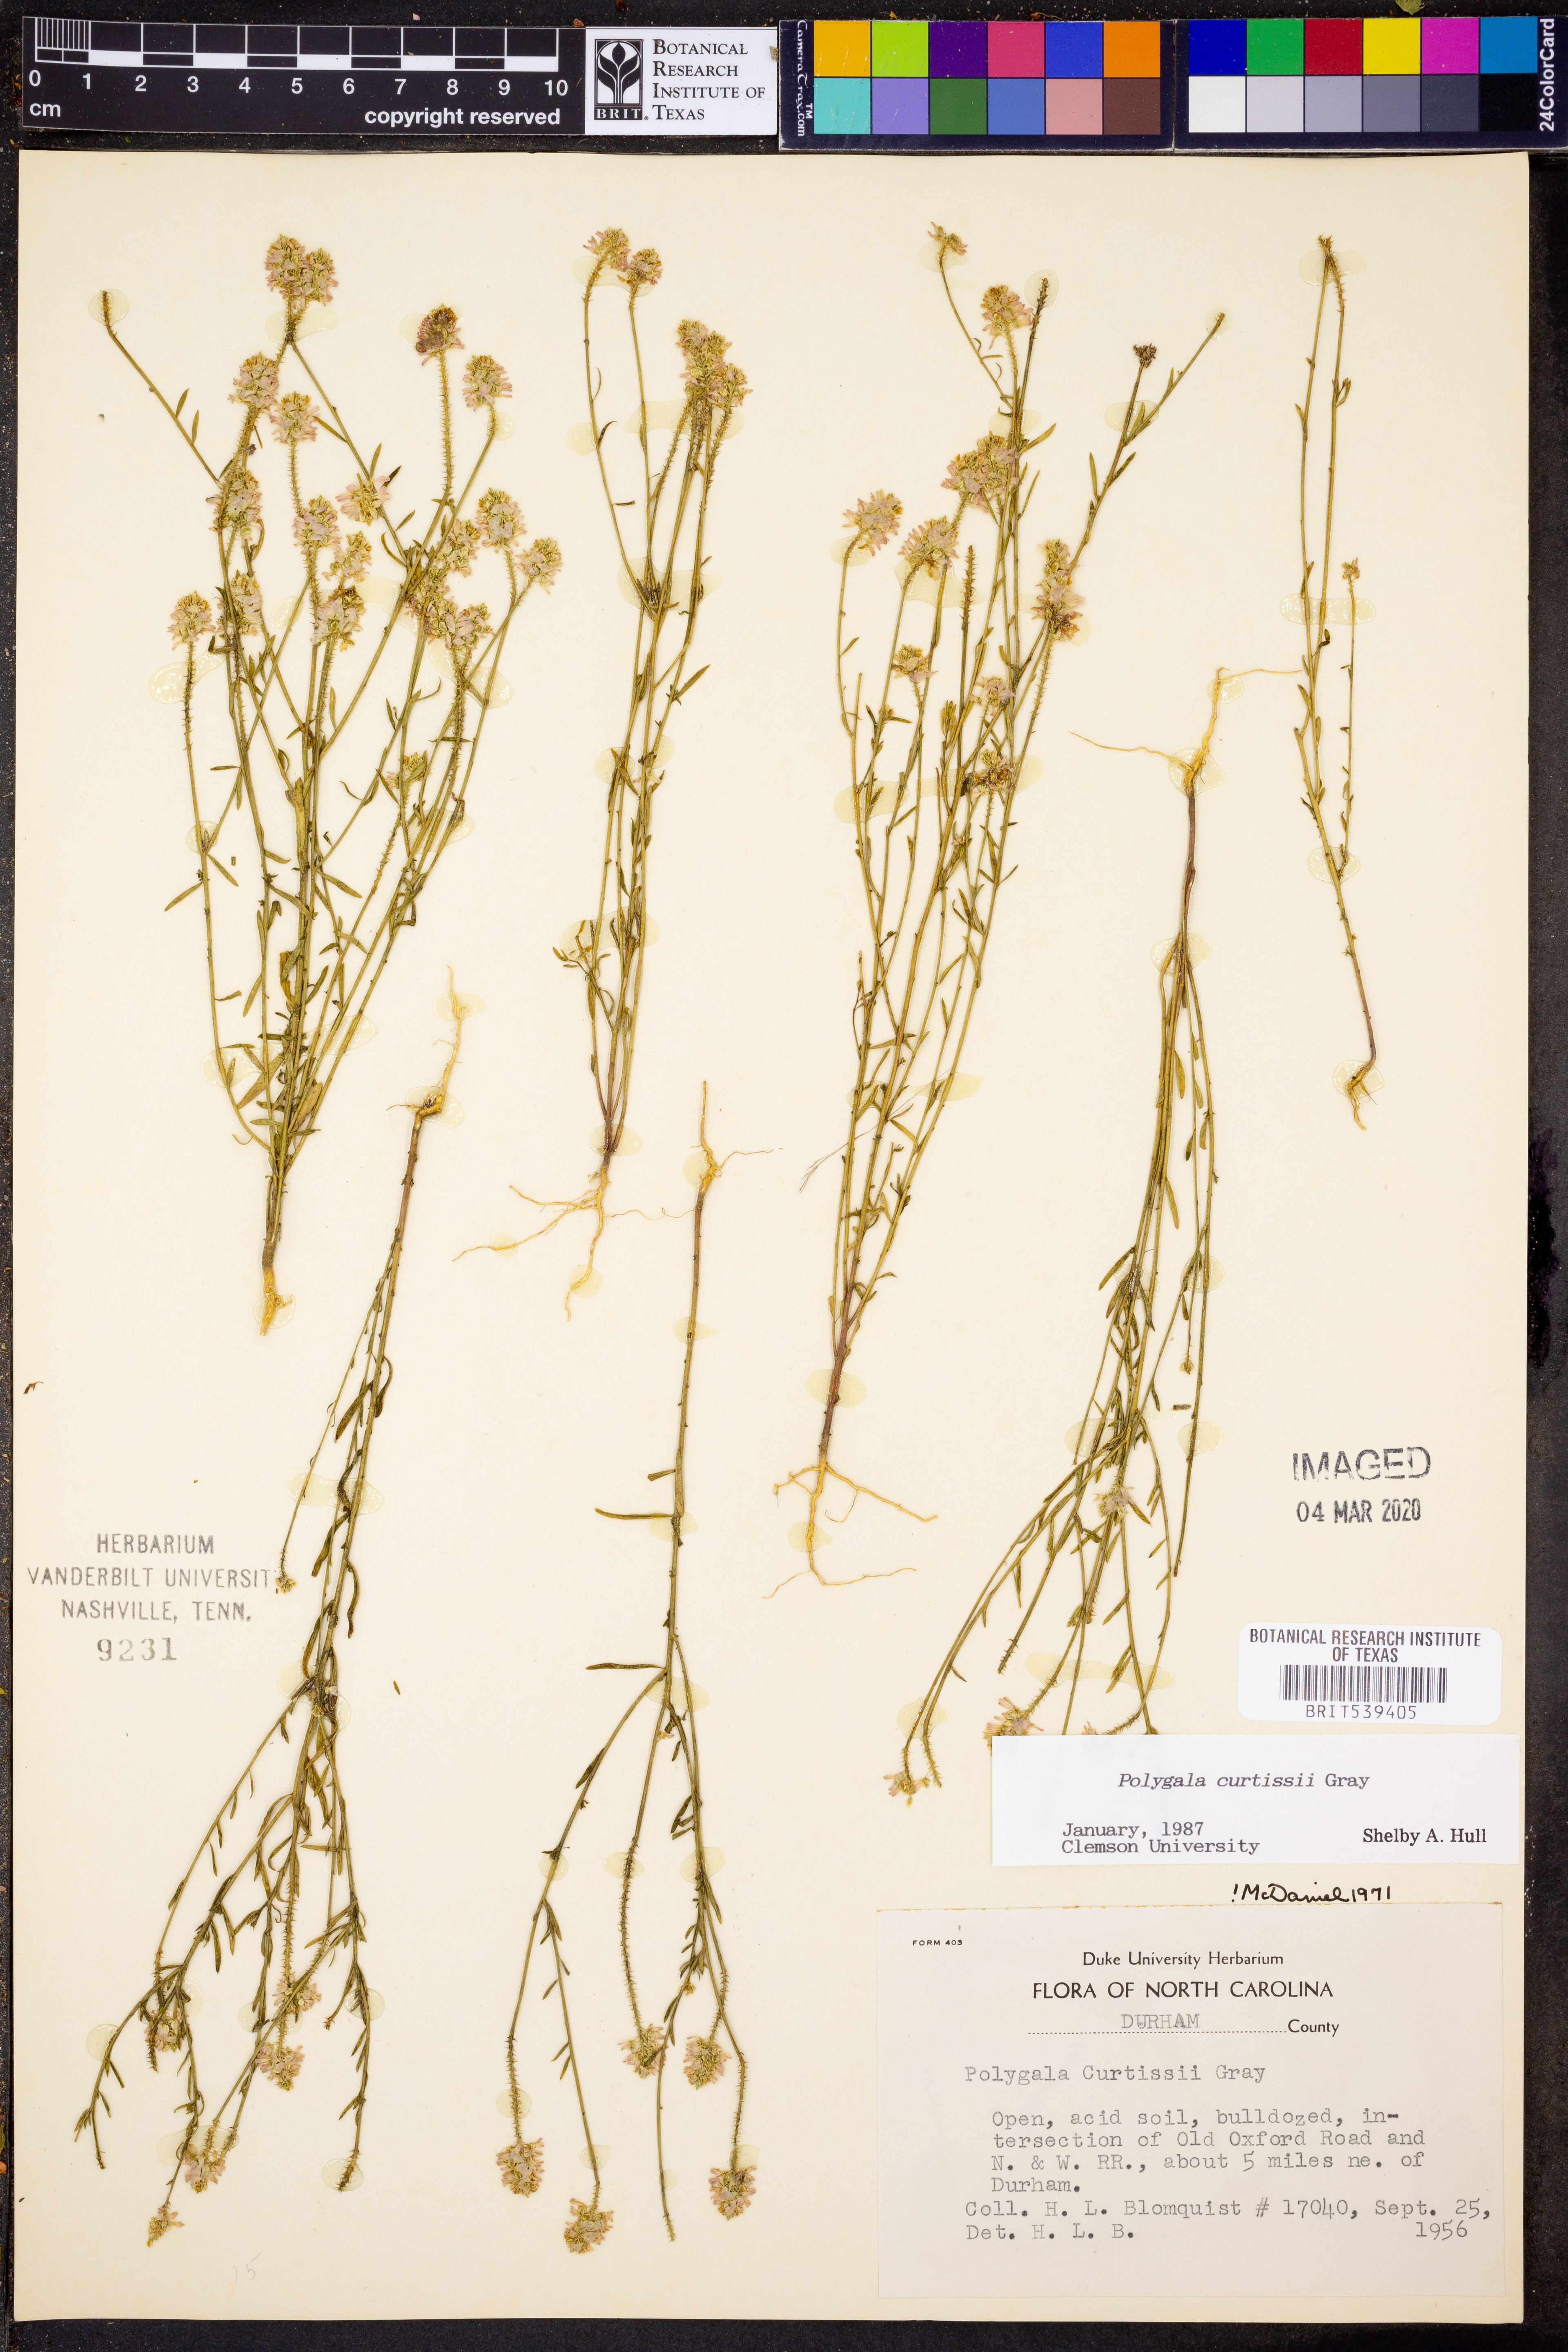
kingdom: Plantae
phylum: Tracheophyta
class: Magnoliopsida
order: Fabales
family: Polygalaceae
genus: Polygala
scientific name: Polygala curtissii
